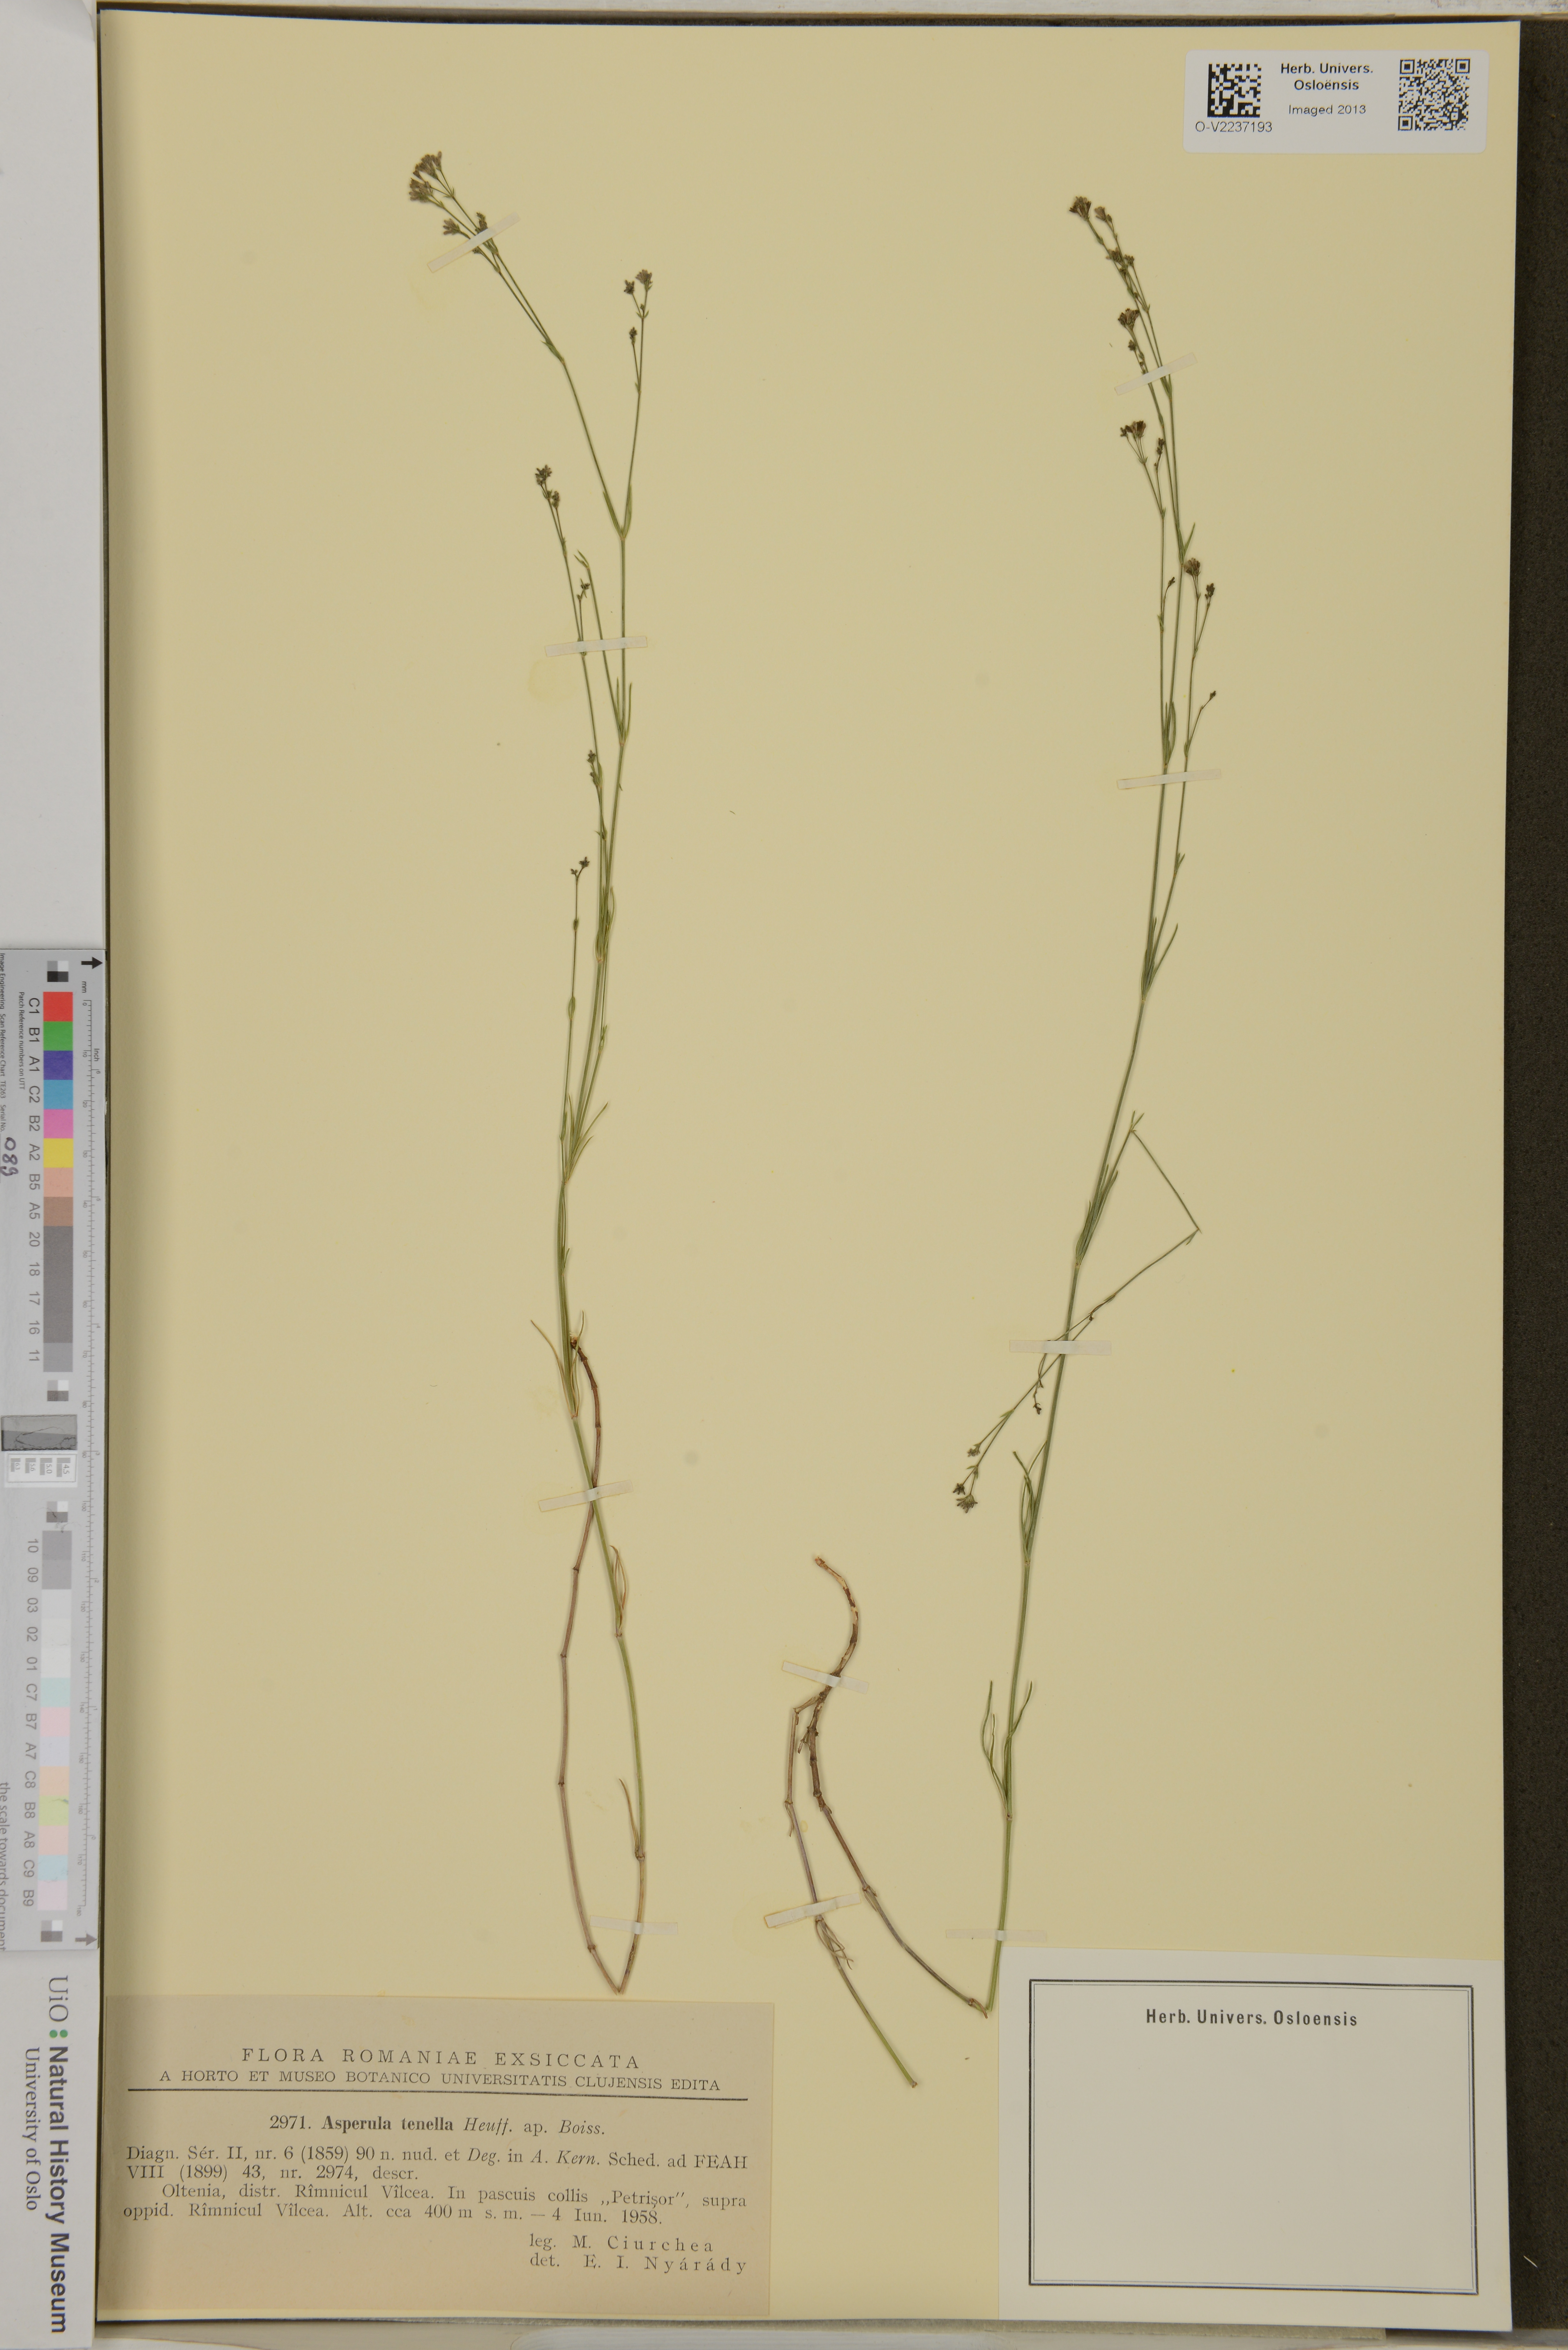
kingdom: Plantae
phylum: Tracheophyta
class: Magnoliopsida
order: Gentianales
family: Rubiaceae
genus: Cynanchica
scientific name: Cynanchica tenella
